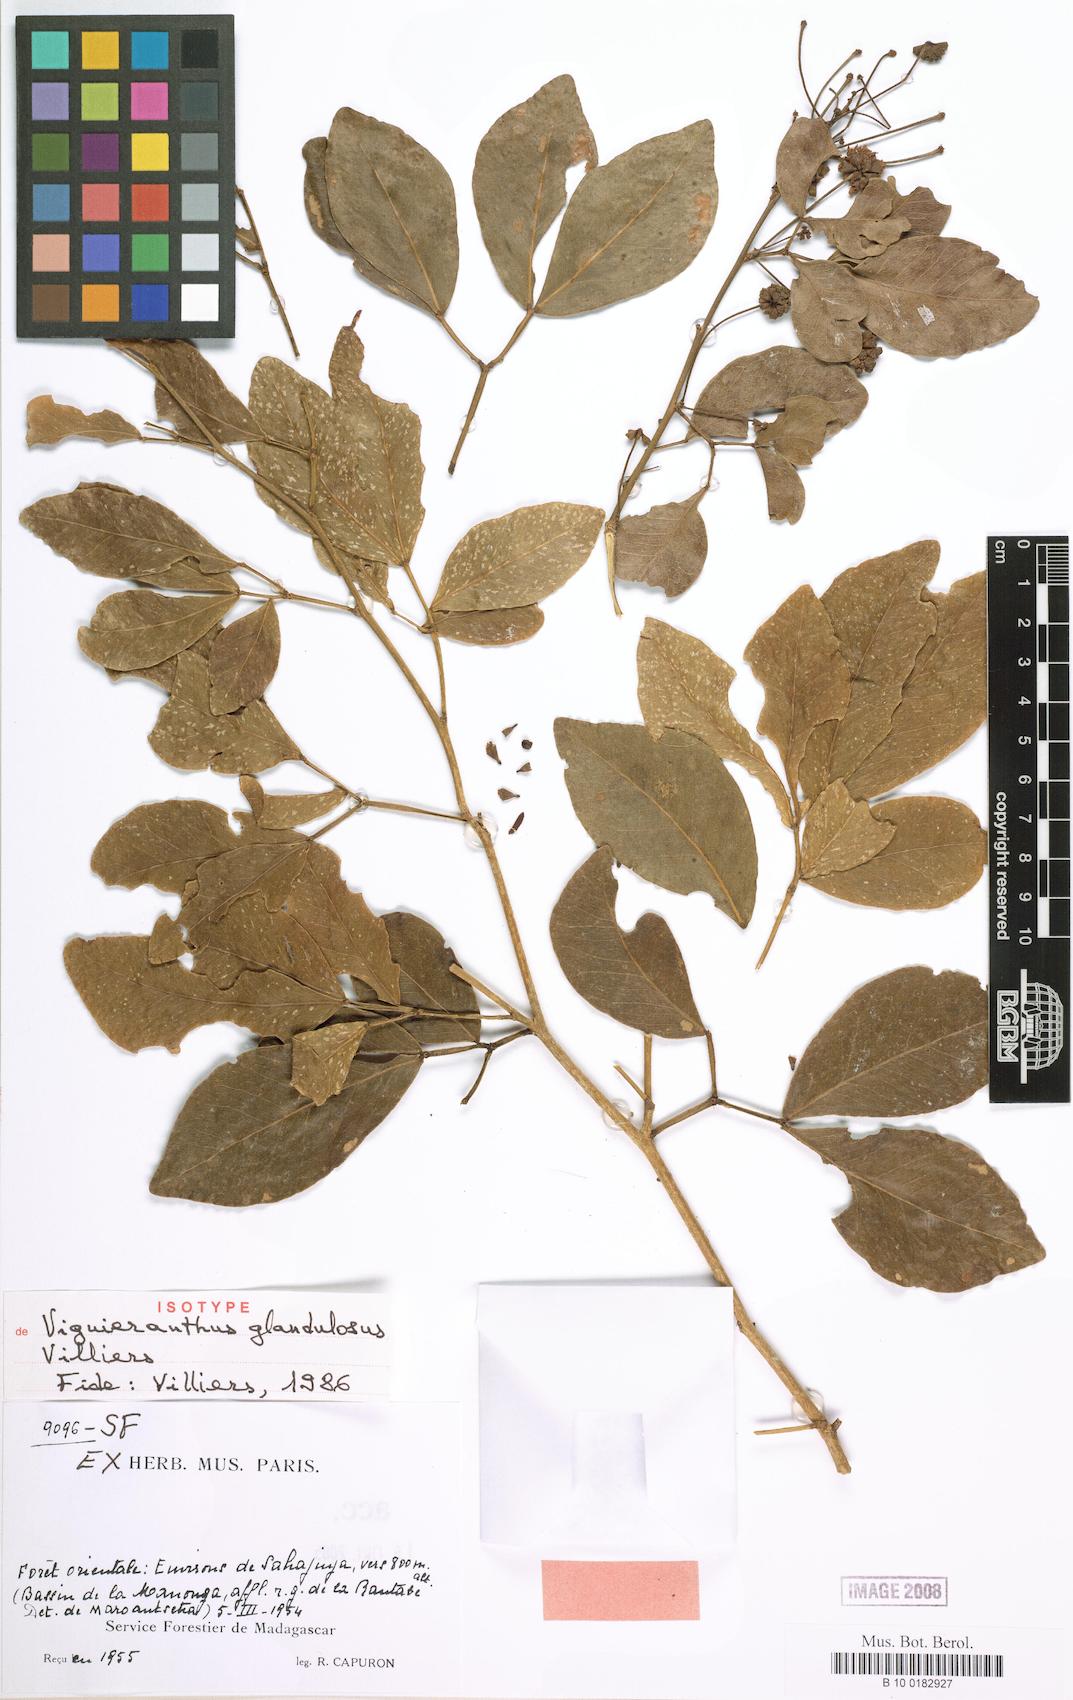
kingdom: Plantae
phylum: Tracheophyta
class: Magnoliopsida
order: Fabales
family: Fabaceae
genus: Viguieranthus
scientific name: Viguieranthus glandulosus
